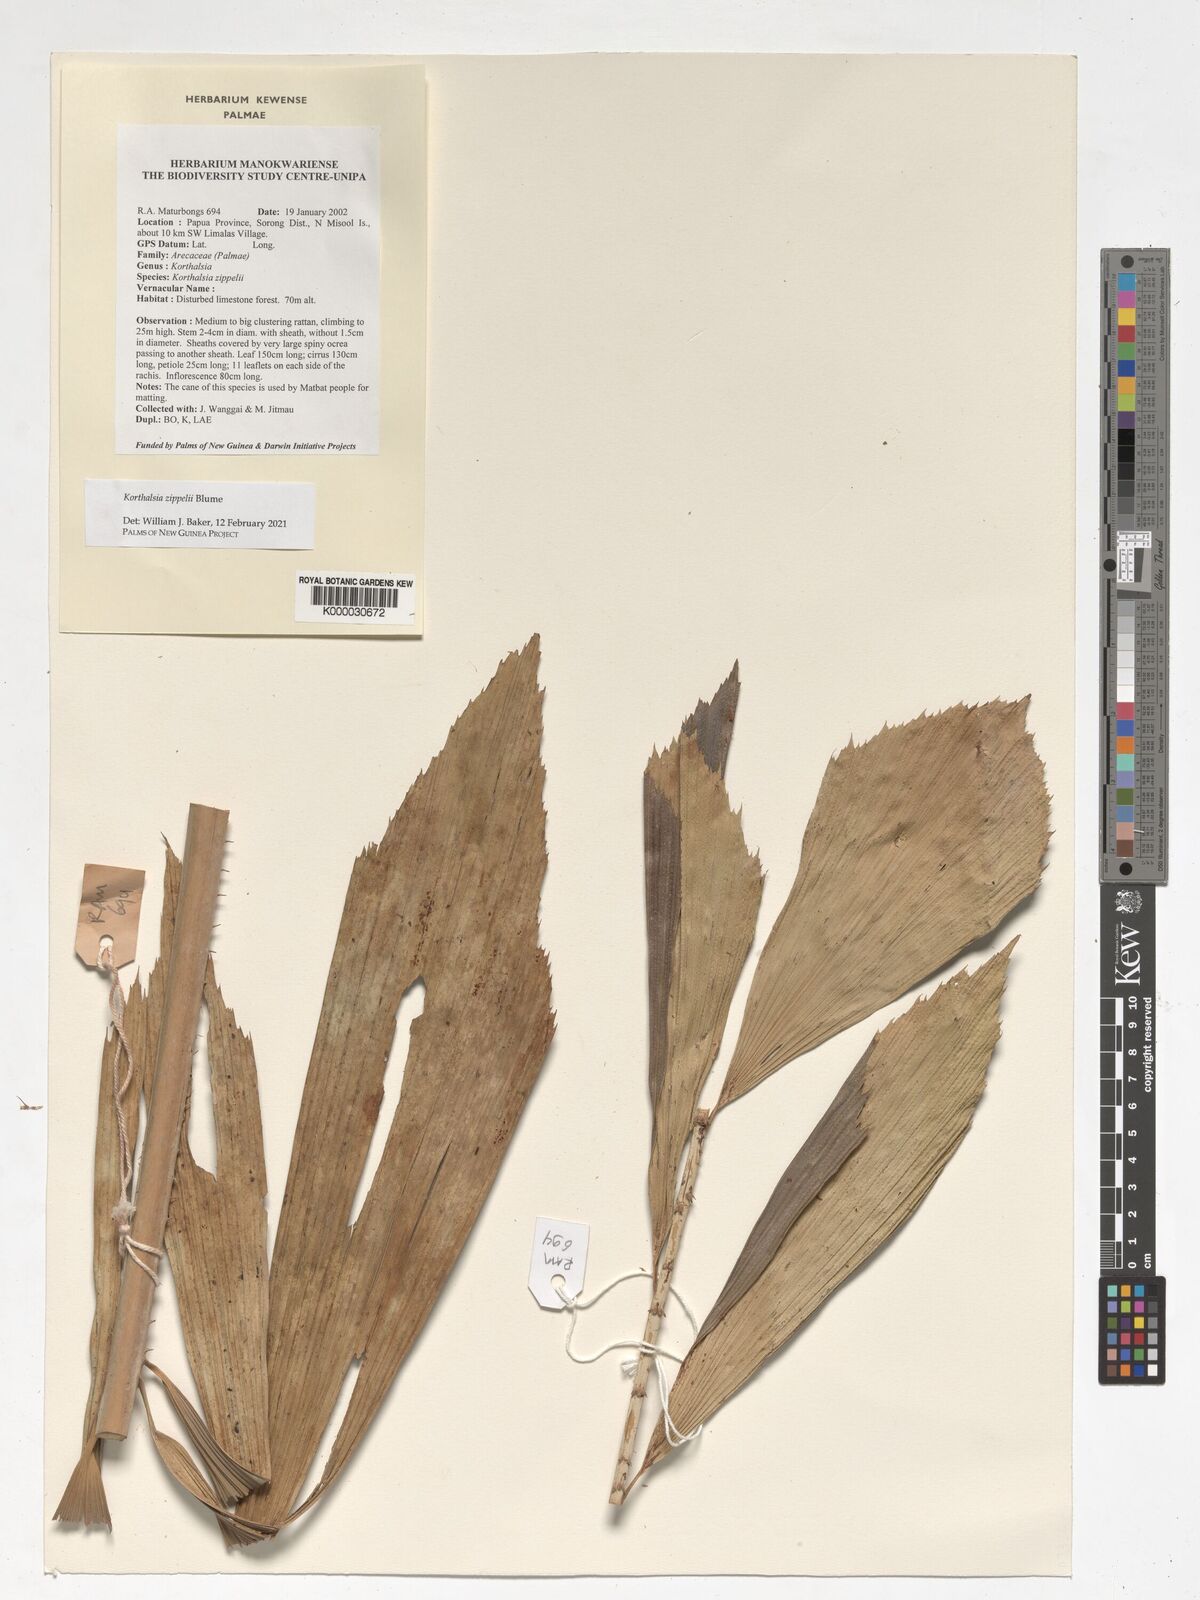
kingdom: Plantae
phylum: Tracheophyta
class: Liliopsida
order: Arecales
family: Arecaceae
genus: Korthalsia
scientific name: Korthalsia zippelii
